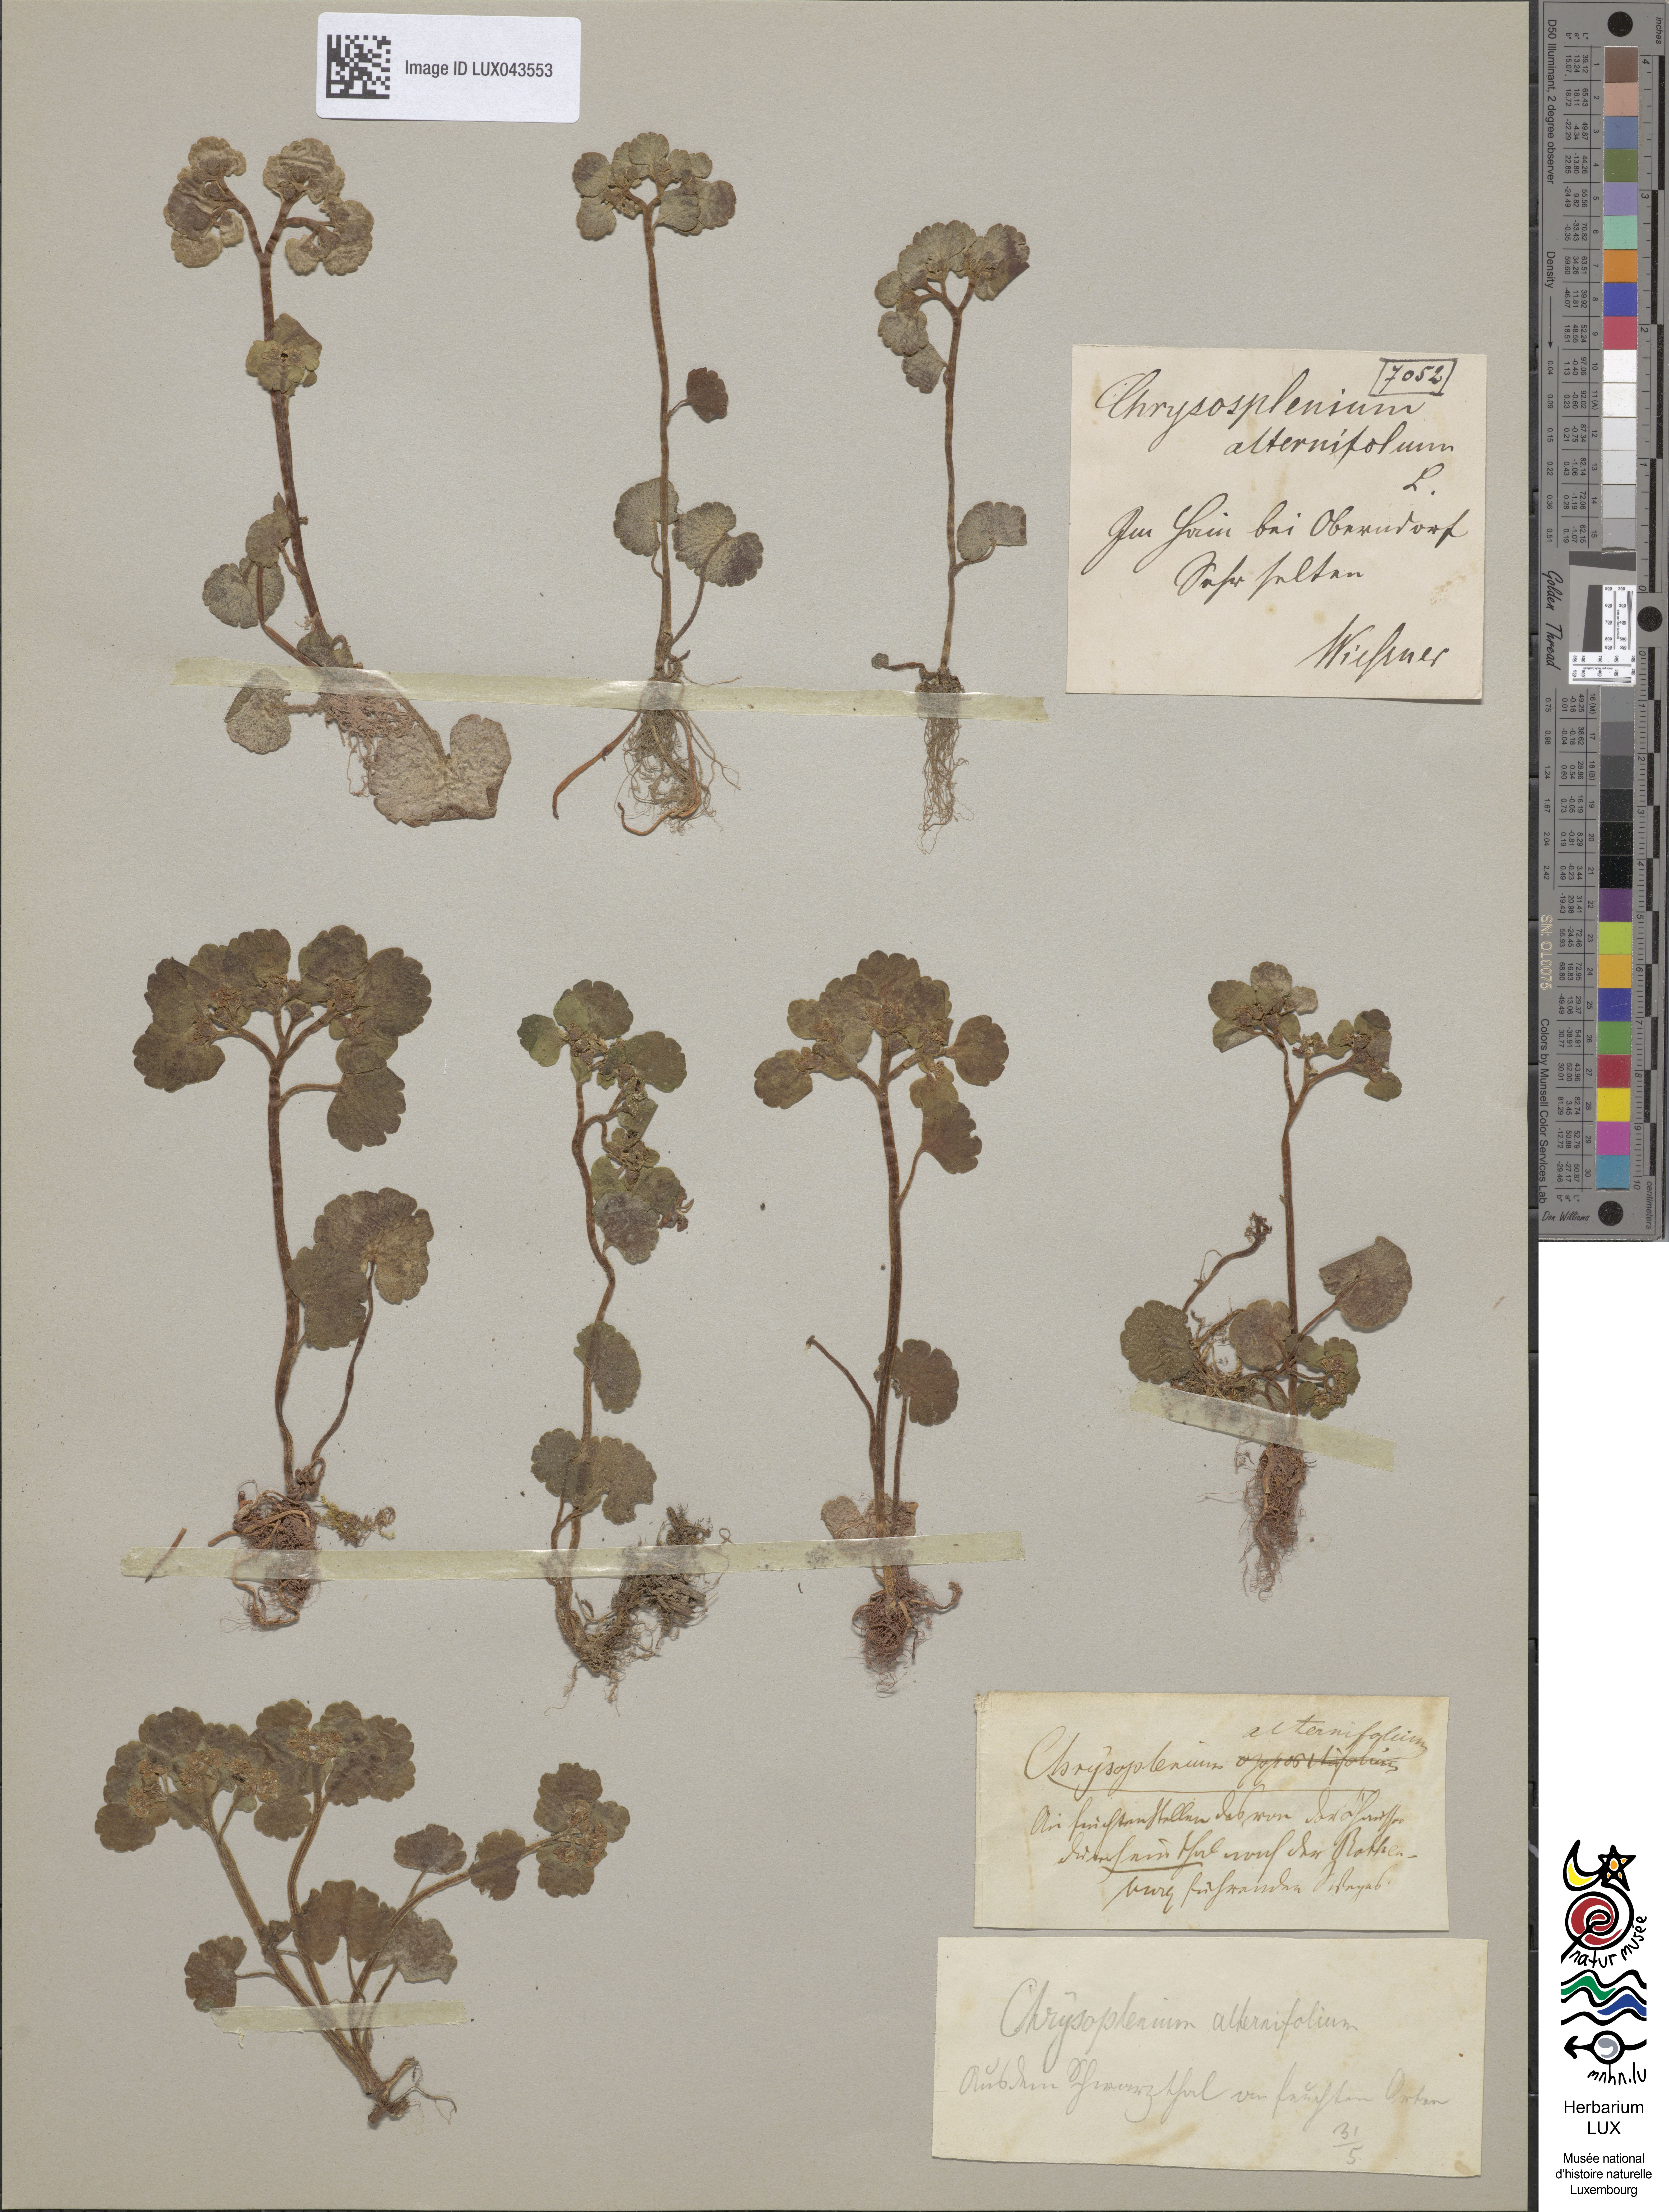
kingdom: Plantae
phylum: Tracheophyta
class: Magnoliopsida
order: Saxifragales
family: Saxifragaceae
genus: Chrysosplenium
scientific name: Chrysosplenium alternifolium
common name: Alternate-leaved golden-saxifrage
